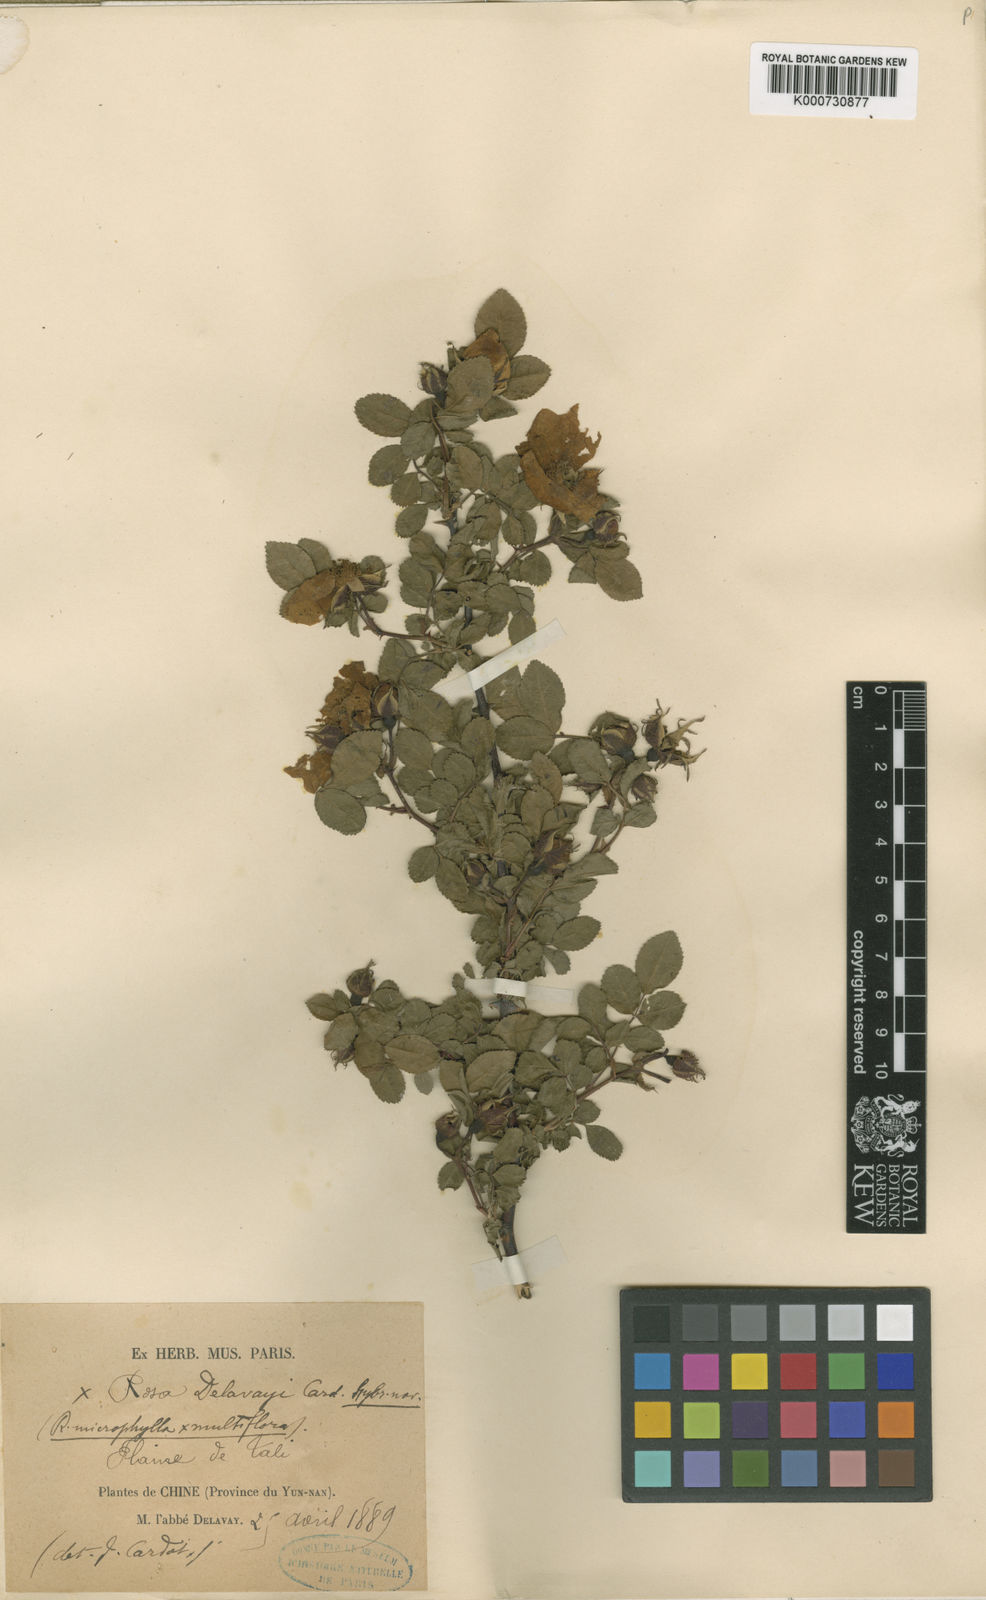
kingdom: Plantae
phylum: Tracheophyta
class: Magnoliopsida
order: Rosales
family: Rosaceae
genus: Rosa
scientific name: Rosa majalis
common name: Cinnamon rose
